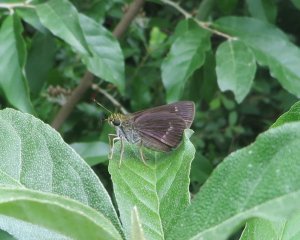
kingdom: Animalia
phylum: Arthropoda
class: Insecta
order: Lepidoptera
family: Hesperiidae
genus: Vernia
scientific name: Vernia verna
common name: Little Glassywing
